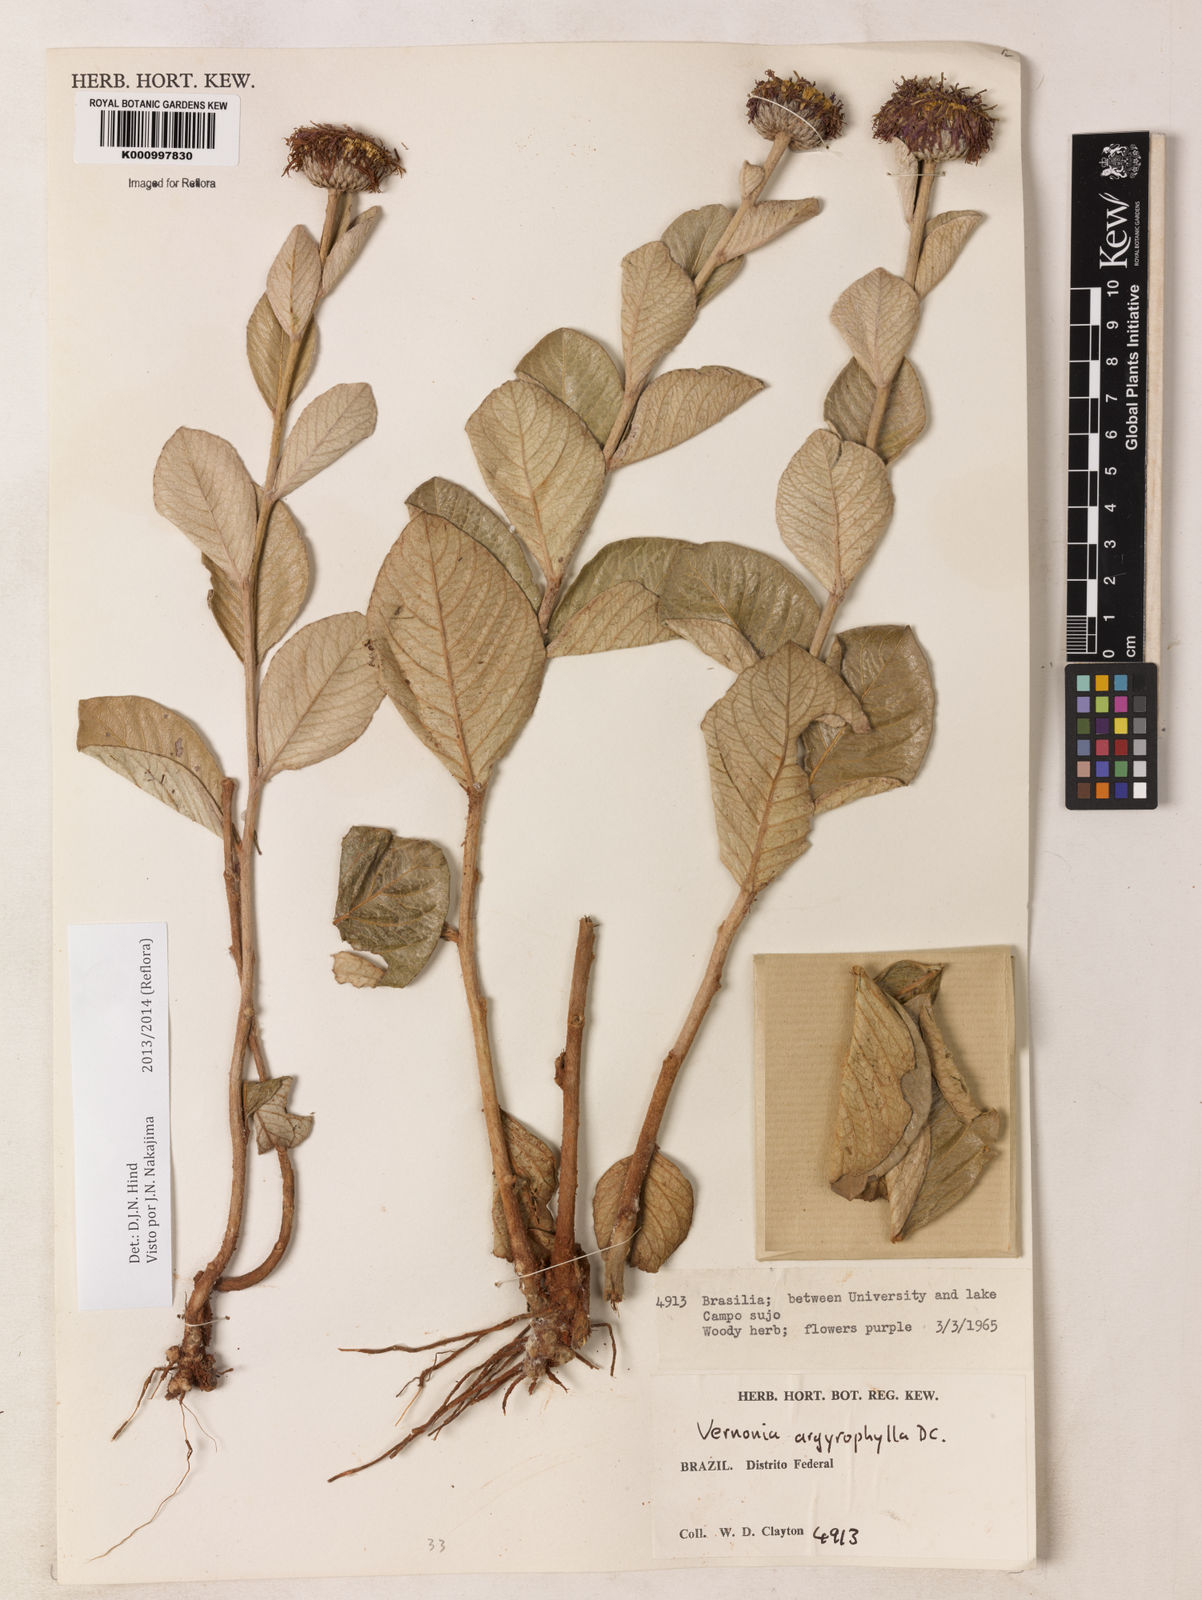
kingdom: Plantae
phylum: Tracheophyta
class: Magnoliopsida
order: Asterales
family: Asteraceae
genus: Lessingianthus
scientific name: Lessingianthus argyrophyllus
